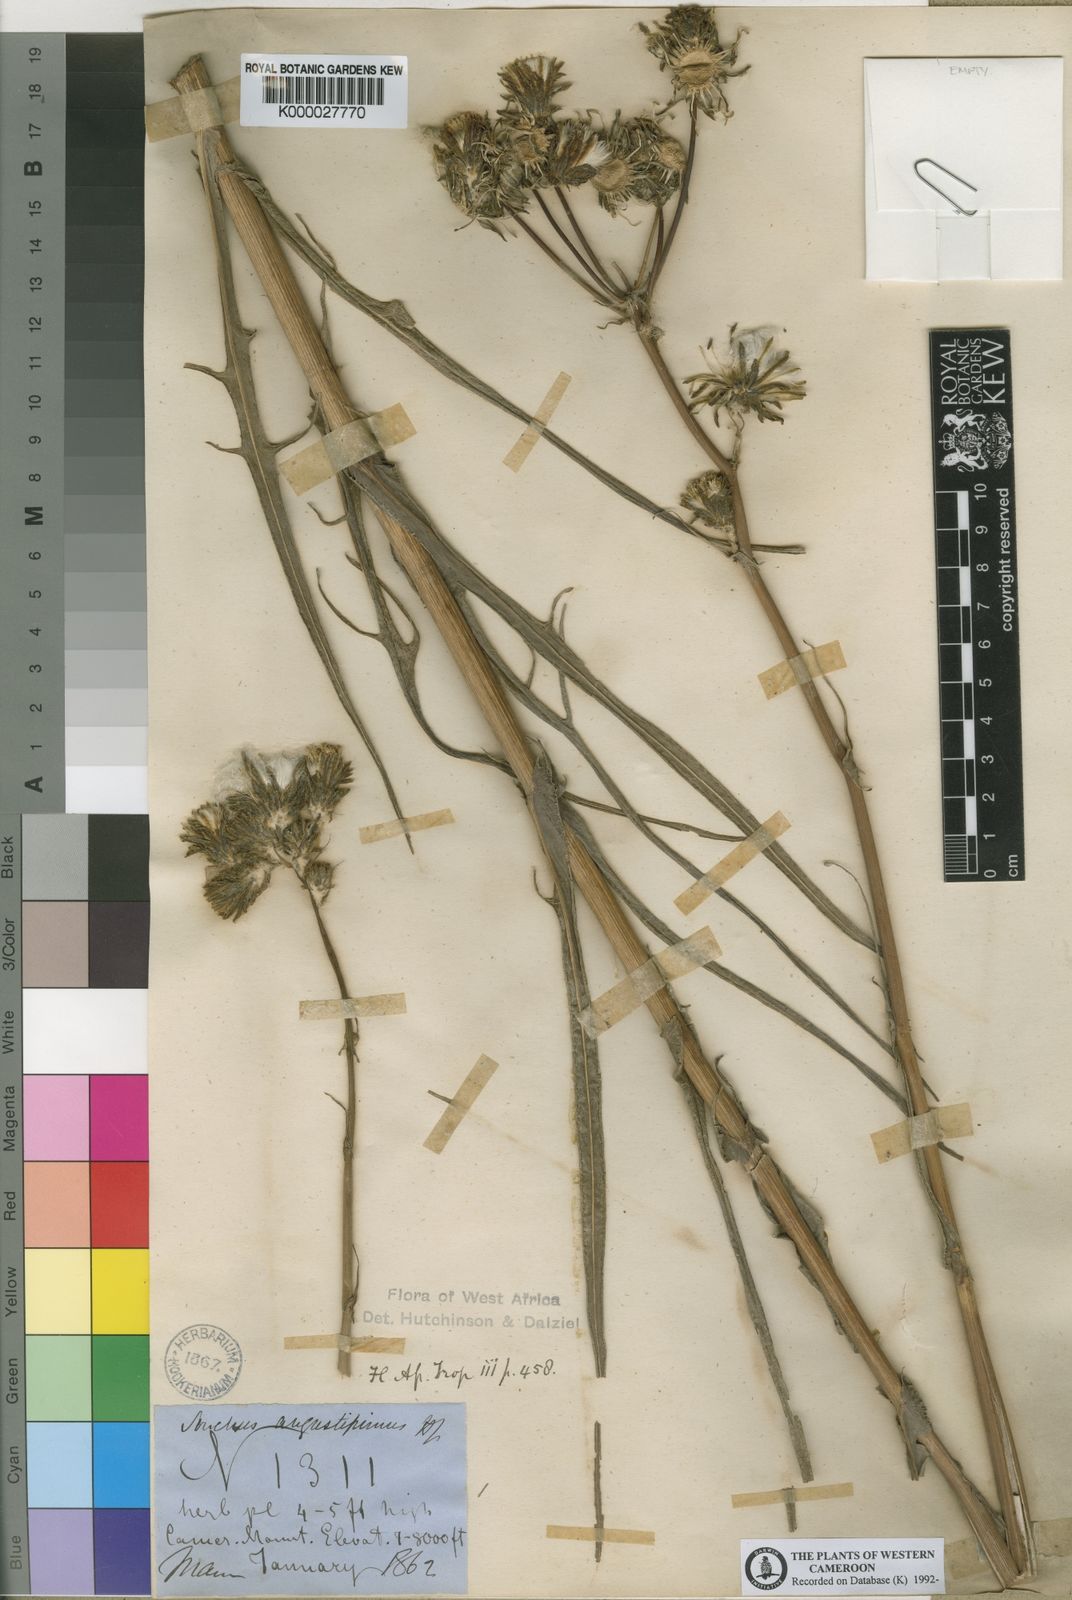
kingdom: Plantae
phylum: Tracheophyta
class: Magnoliopsida
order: Asterales
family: Asteraceae
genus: Sonchus
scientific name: Sonchus angustissimus
